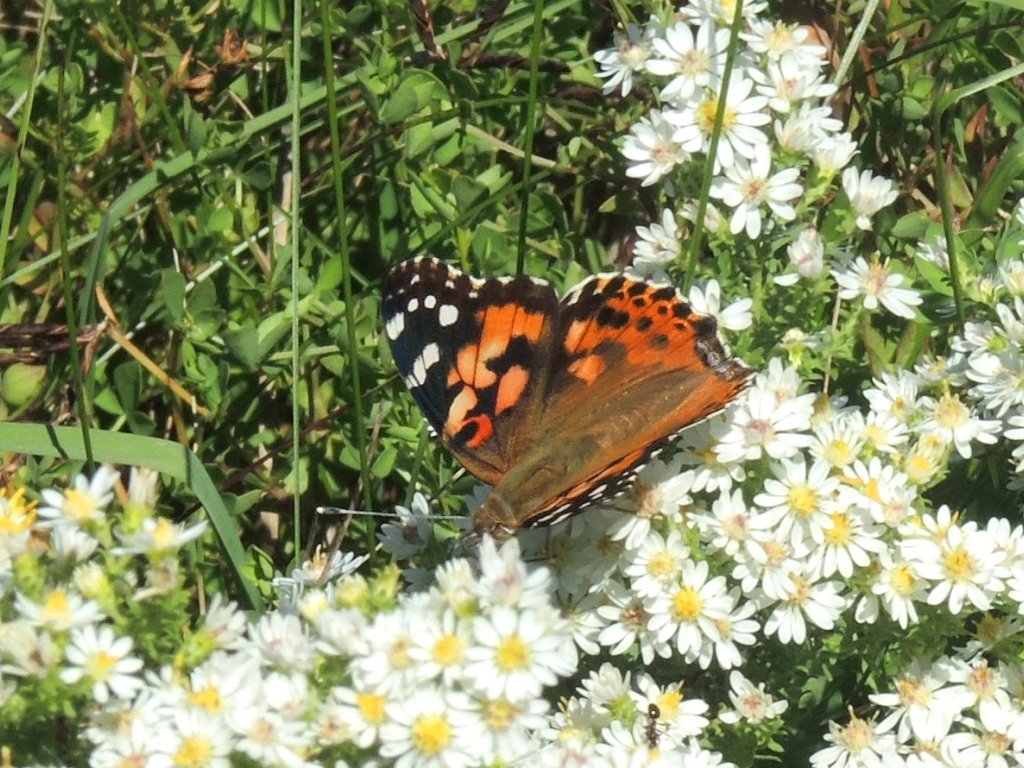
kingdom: Animalia
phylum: Arthropoda
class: Insecta
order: Lepidoptera
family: Nymphalidae
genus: Vanessa
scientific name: Vanessa cardui
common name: Painted Lady
